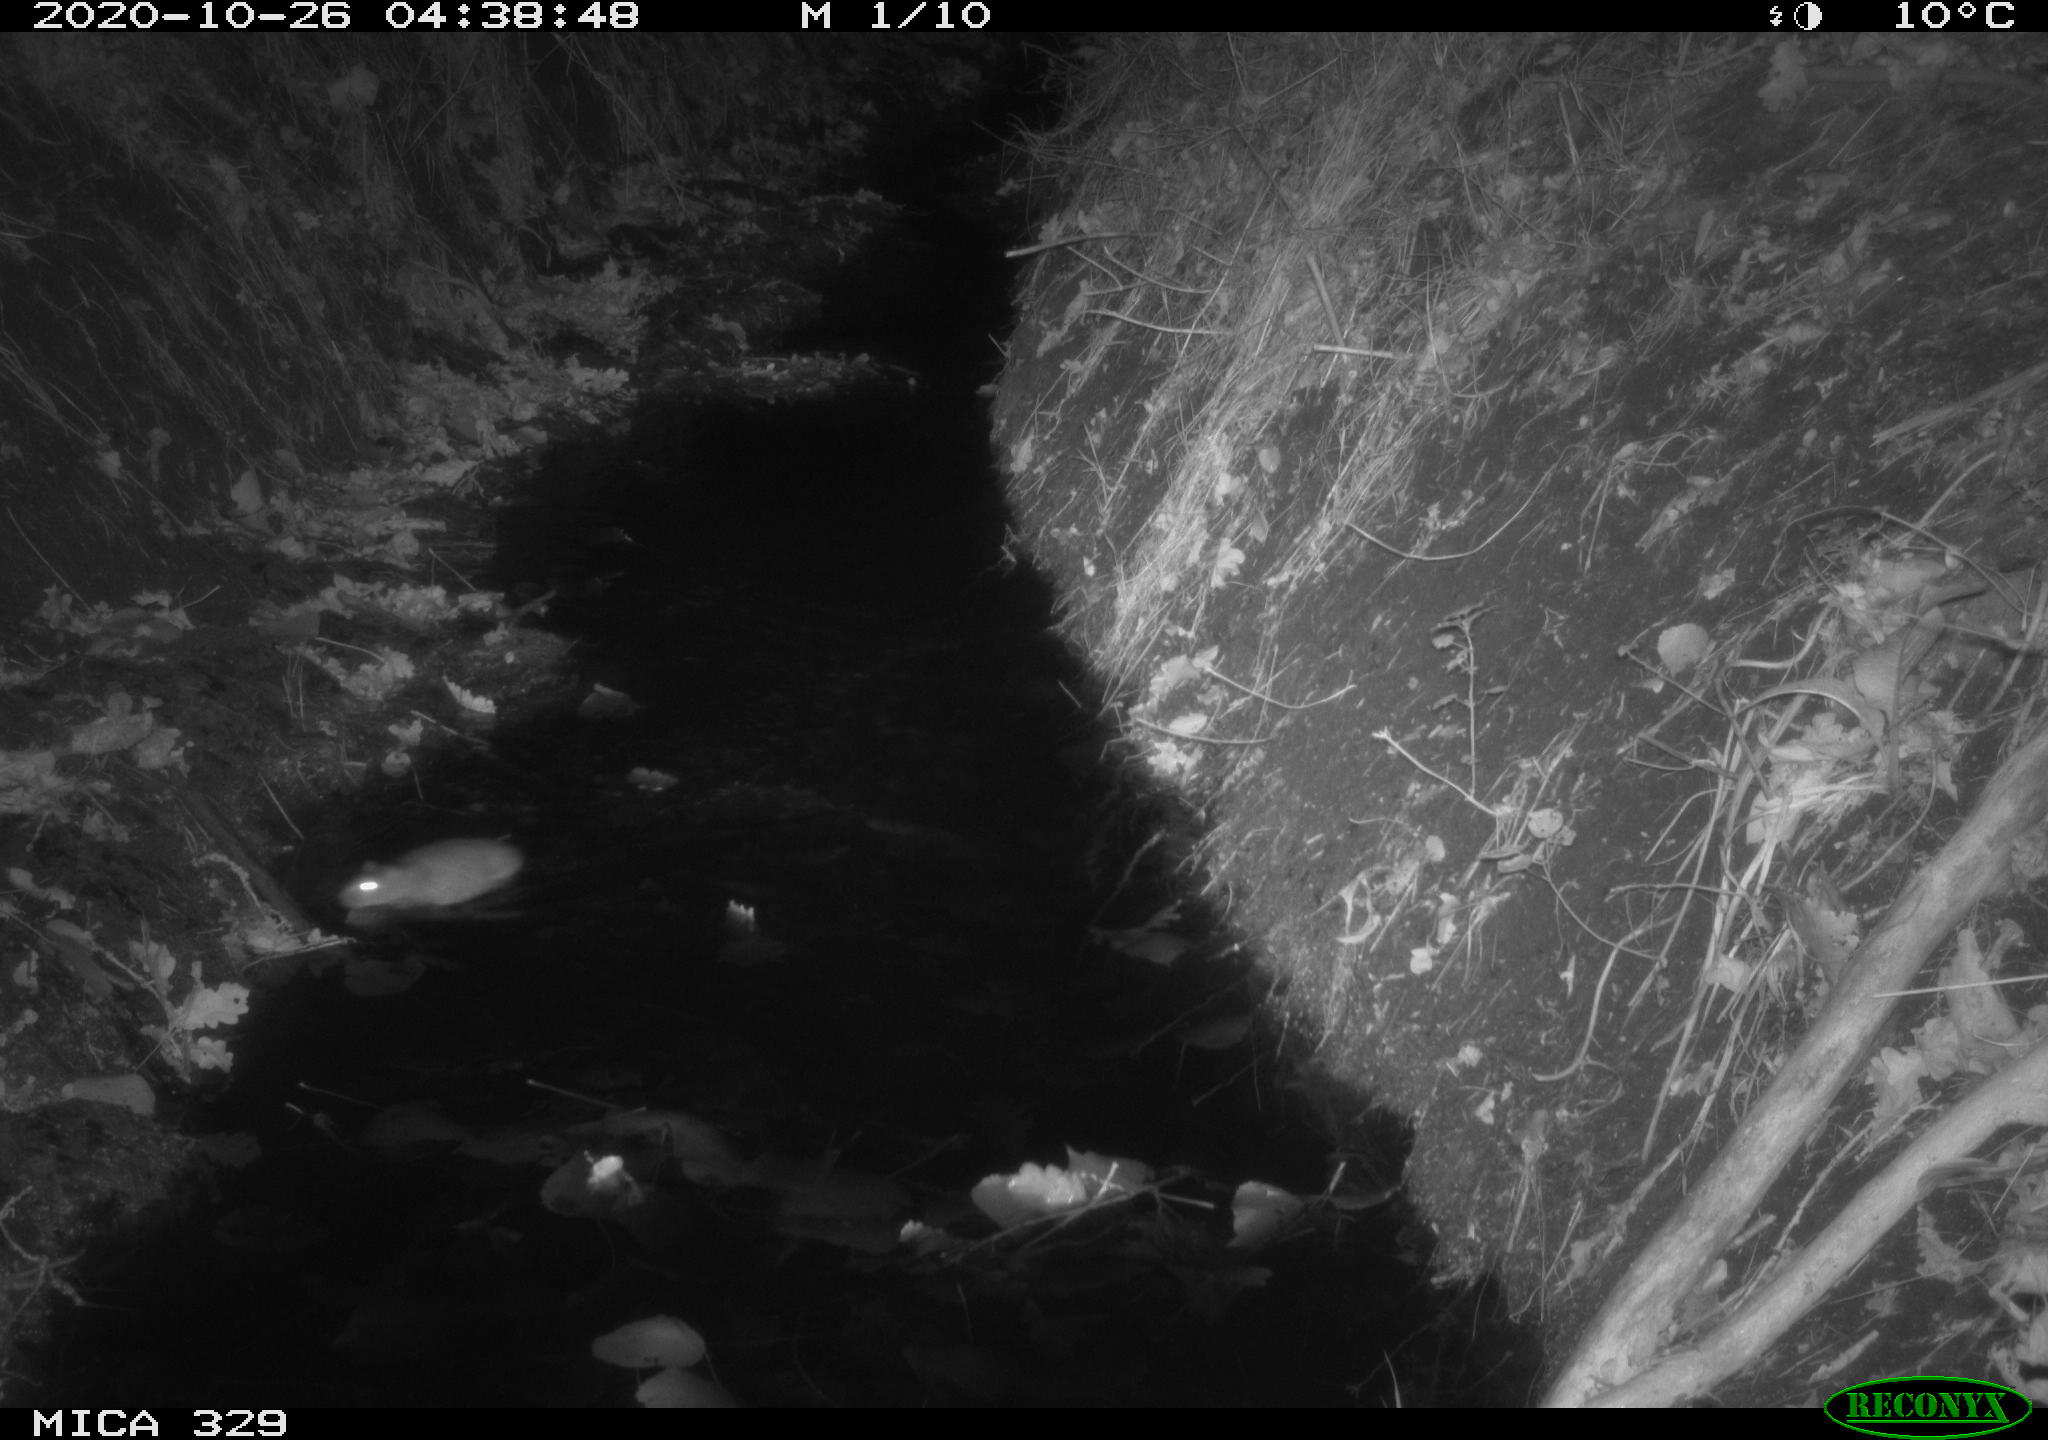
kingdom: Animalia
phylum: Chordata
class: Mammalia
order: Rodentia
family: Muridae
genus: Rattus
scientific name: Rattus norvegicus
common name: Brown rat
